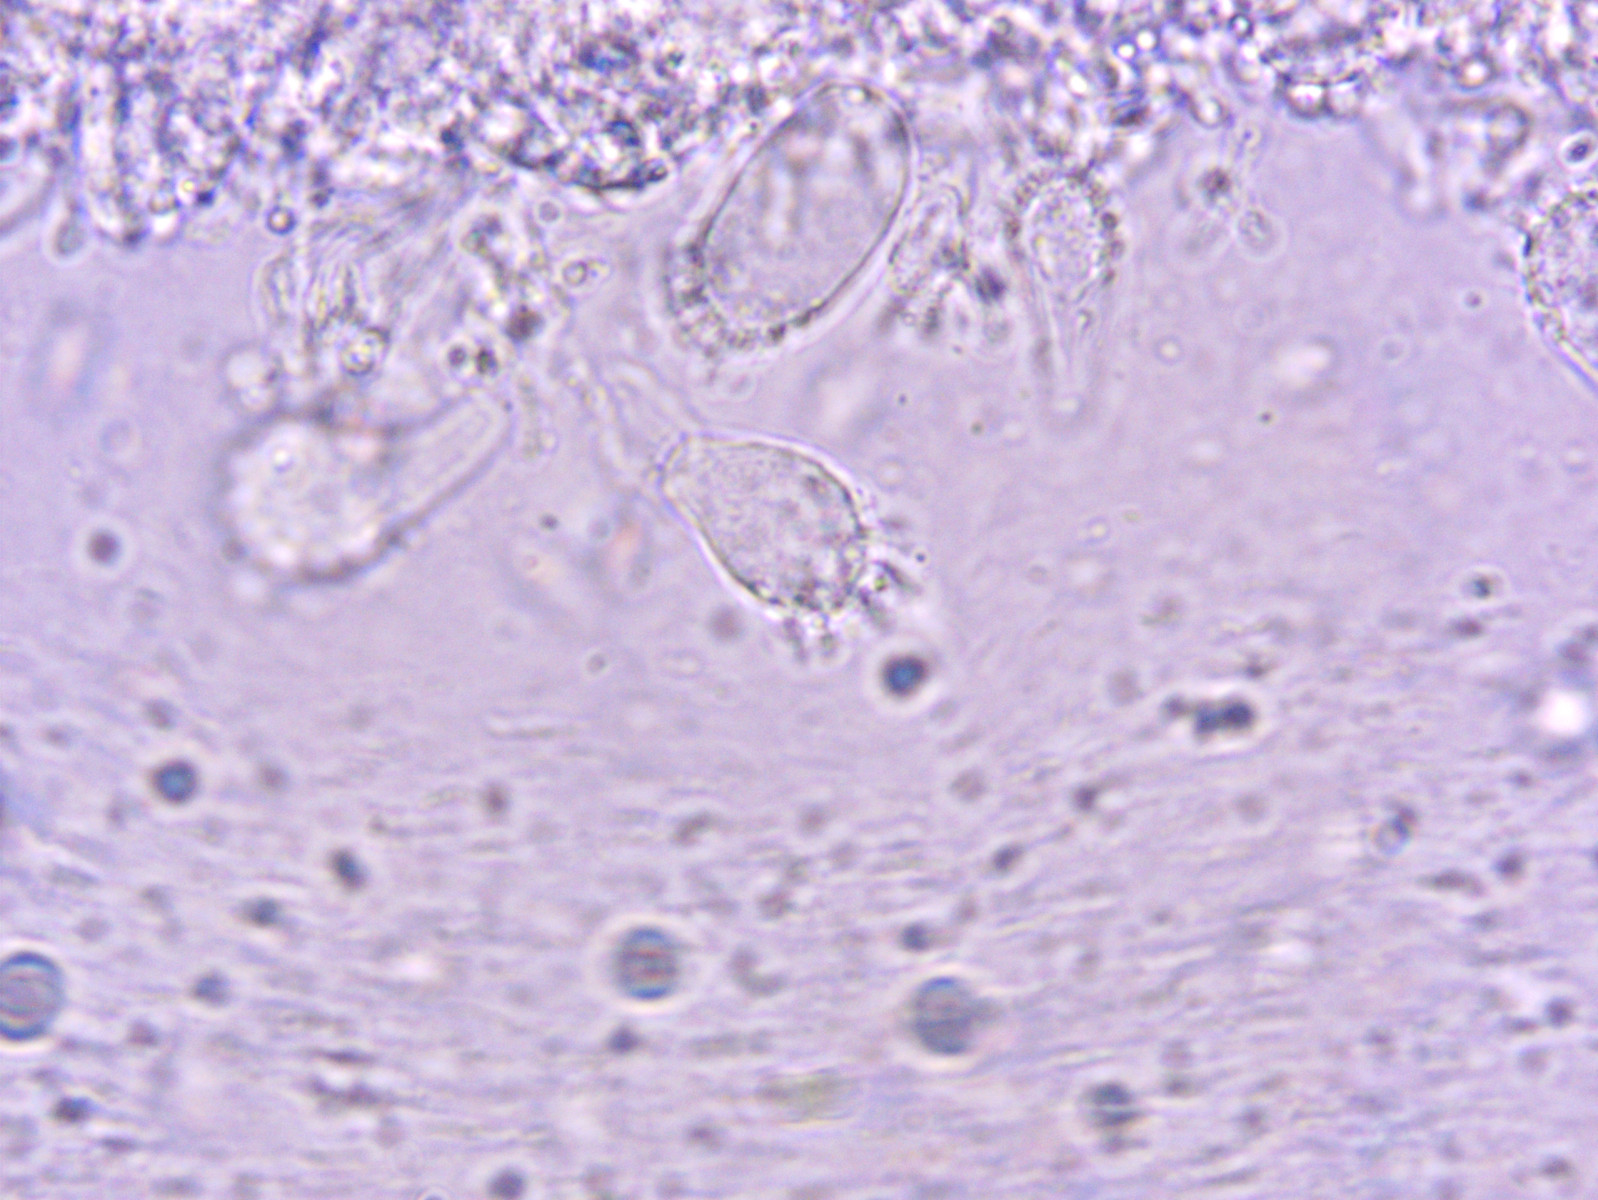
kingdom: Fungi
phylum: Basidiomycota
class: Agaricomycetes
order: Agaricales
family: Mycenaceae
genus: Mycena
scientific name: Mycena xantholeuca
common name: cremehvid huesvamp
